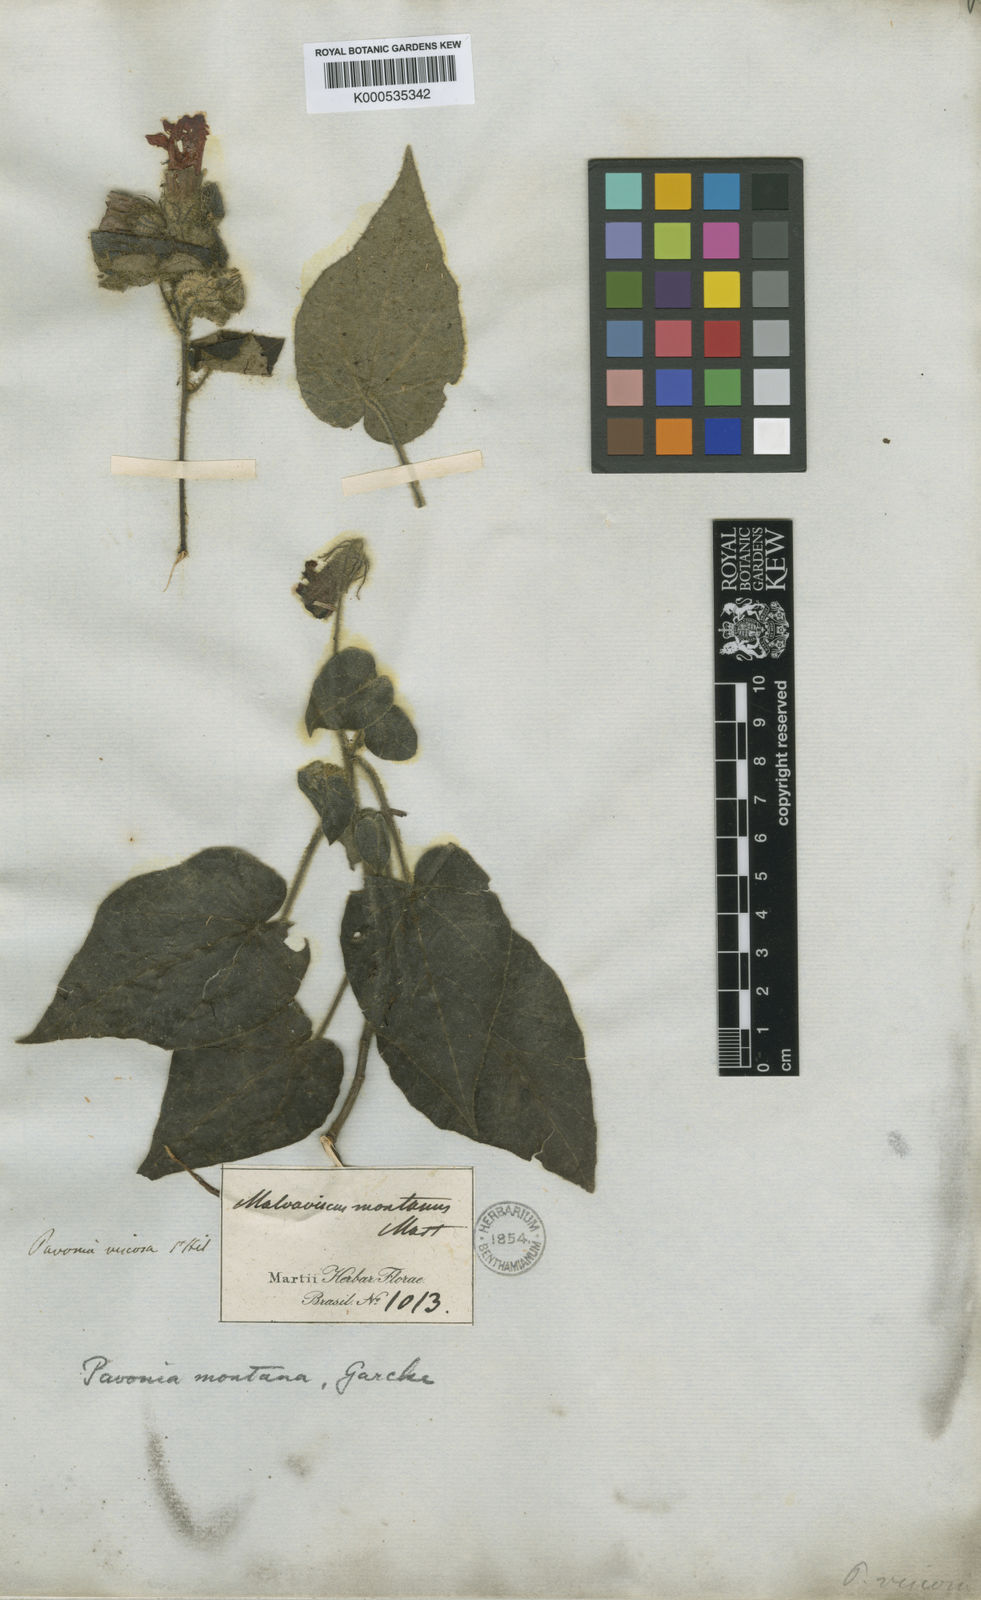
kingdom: Plantae
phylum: Tracheophyta
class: Magnoliopsida
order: Malvales
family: Malvaceae
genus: Pavonia
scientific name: Pavonia
